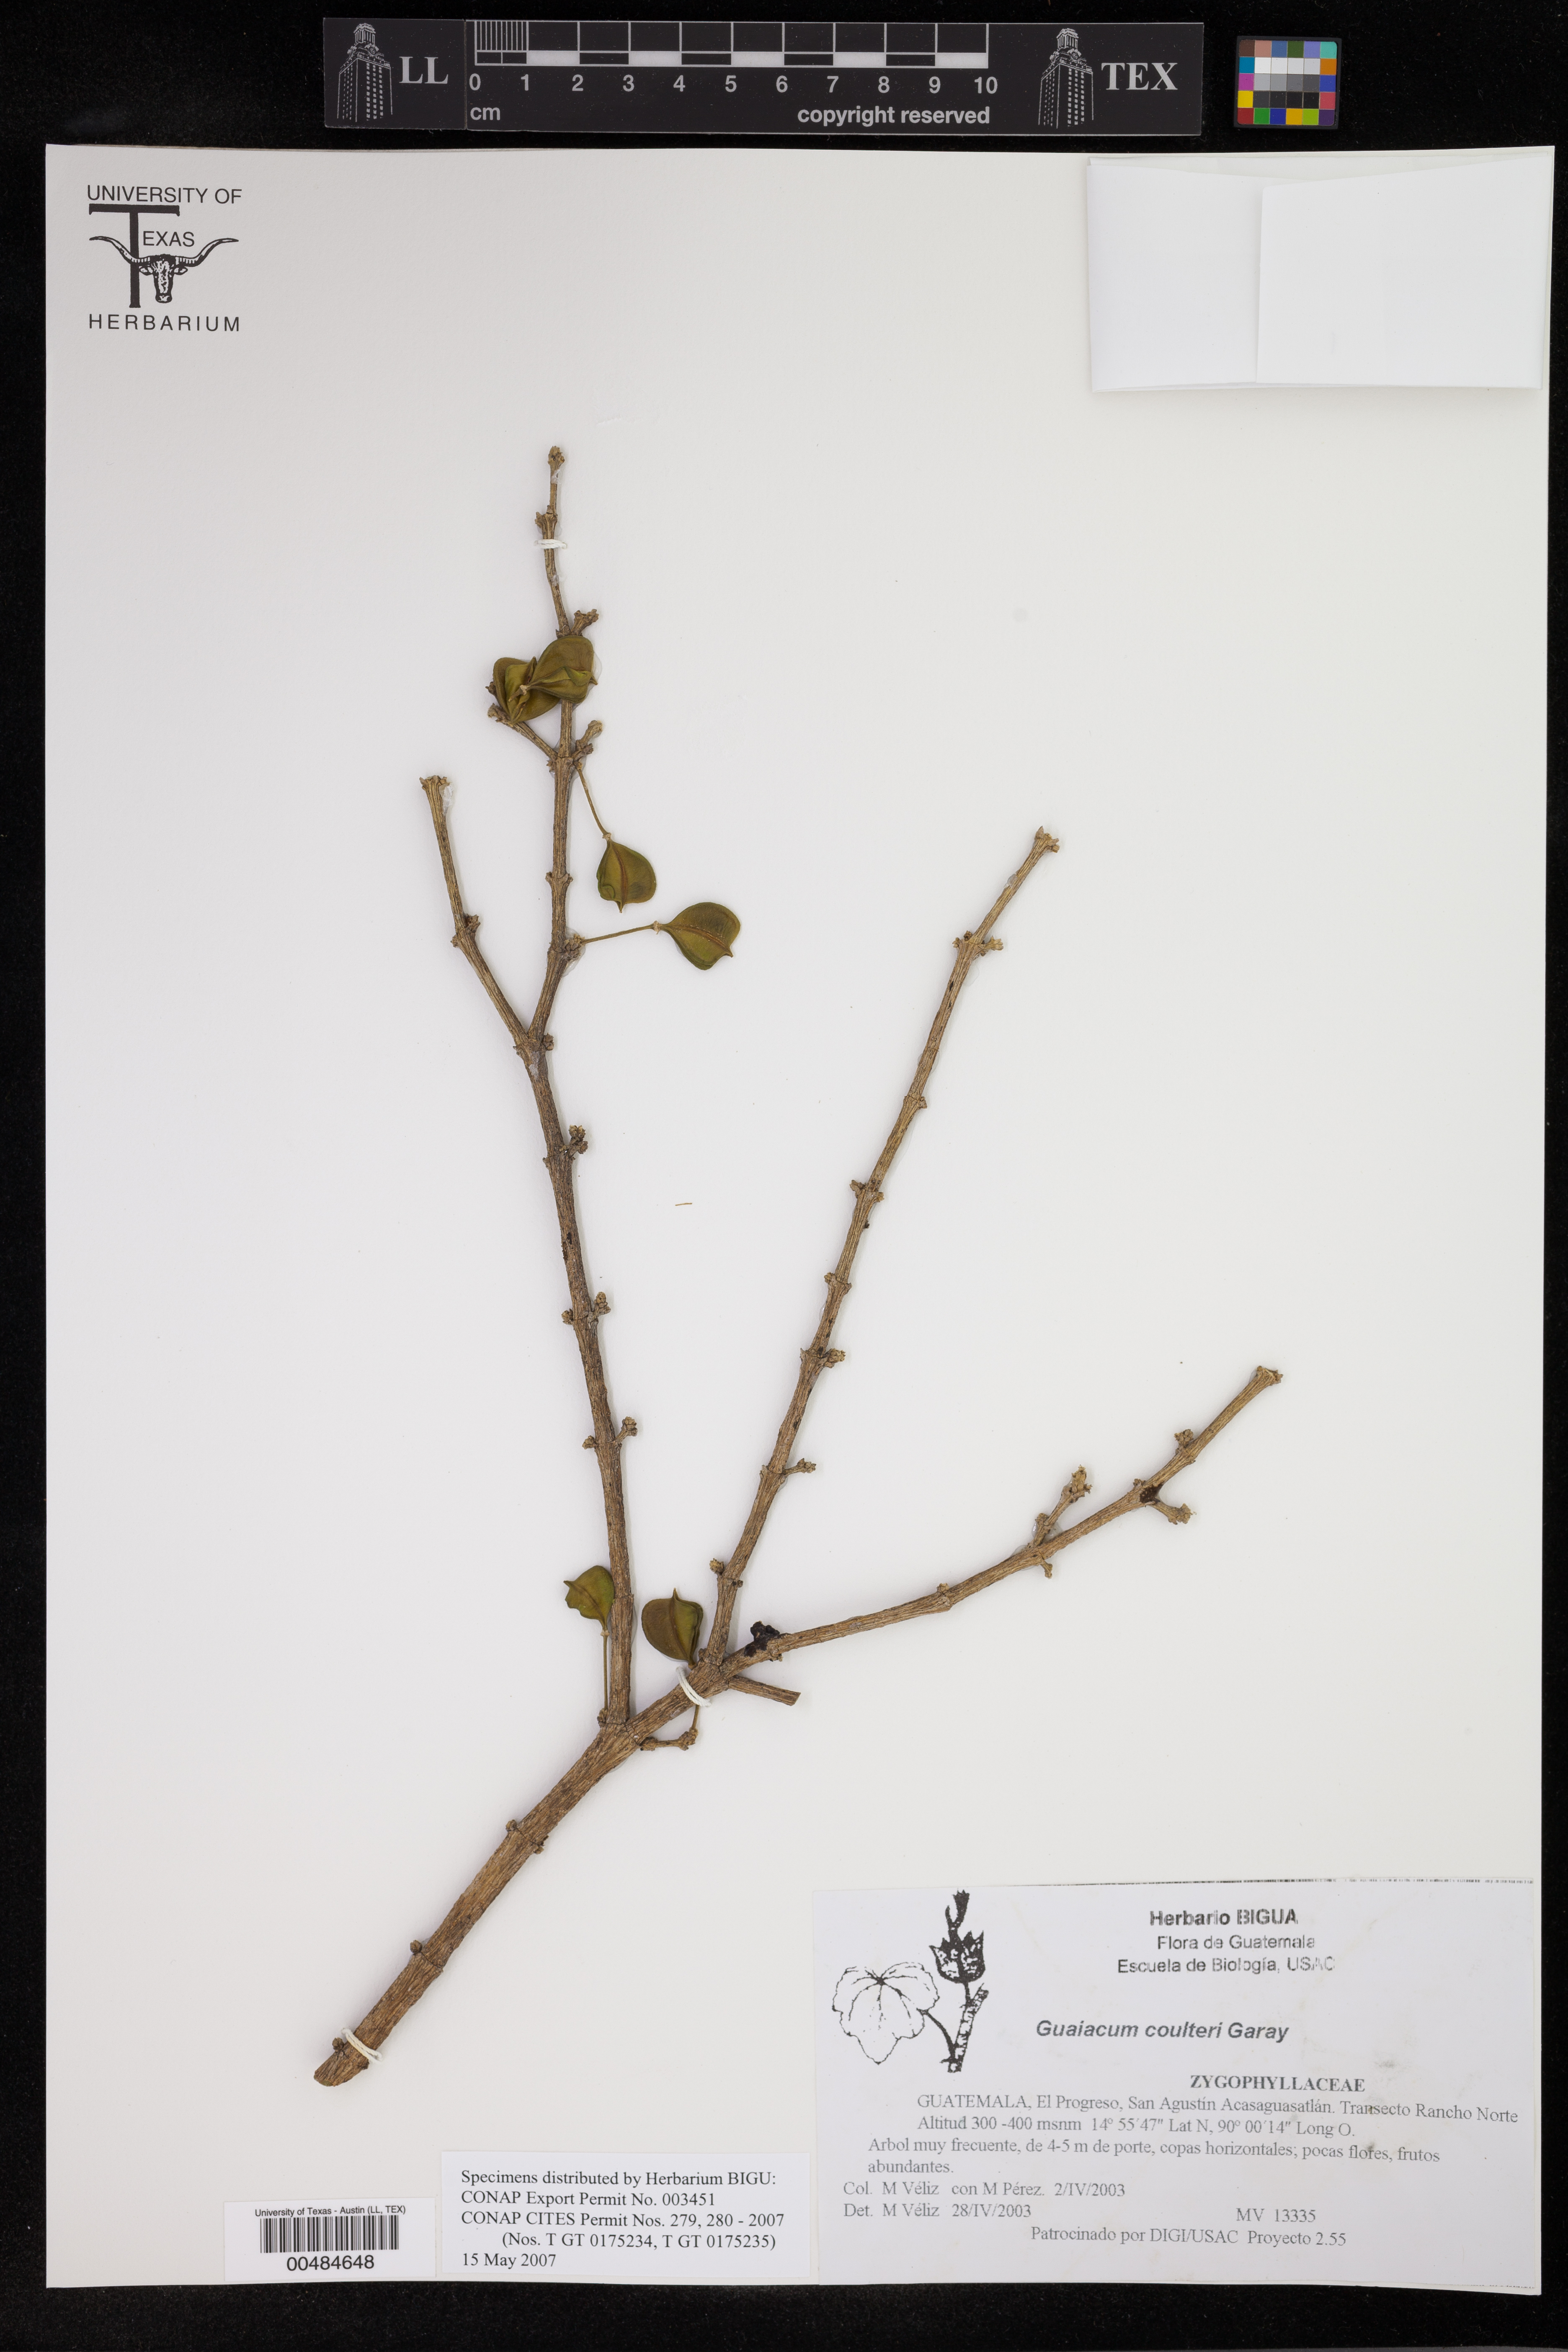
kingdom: Plantae
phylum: Tracheophyta
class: Magnoliopsida
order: Zygophyllales
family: Zygophyllaceae
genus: Guaiacum
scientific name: Guaiacum coulteri
